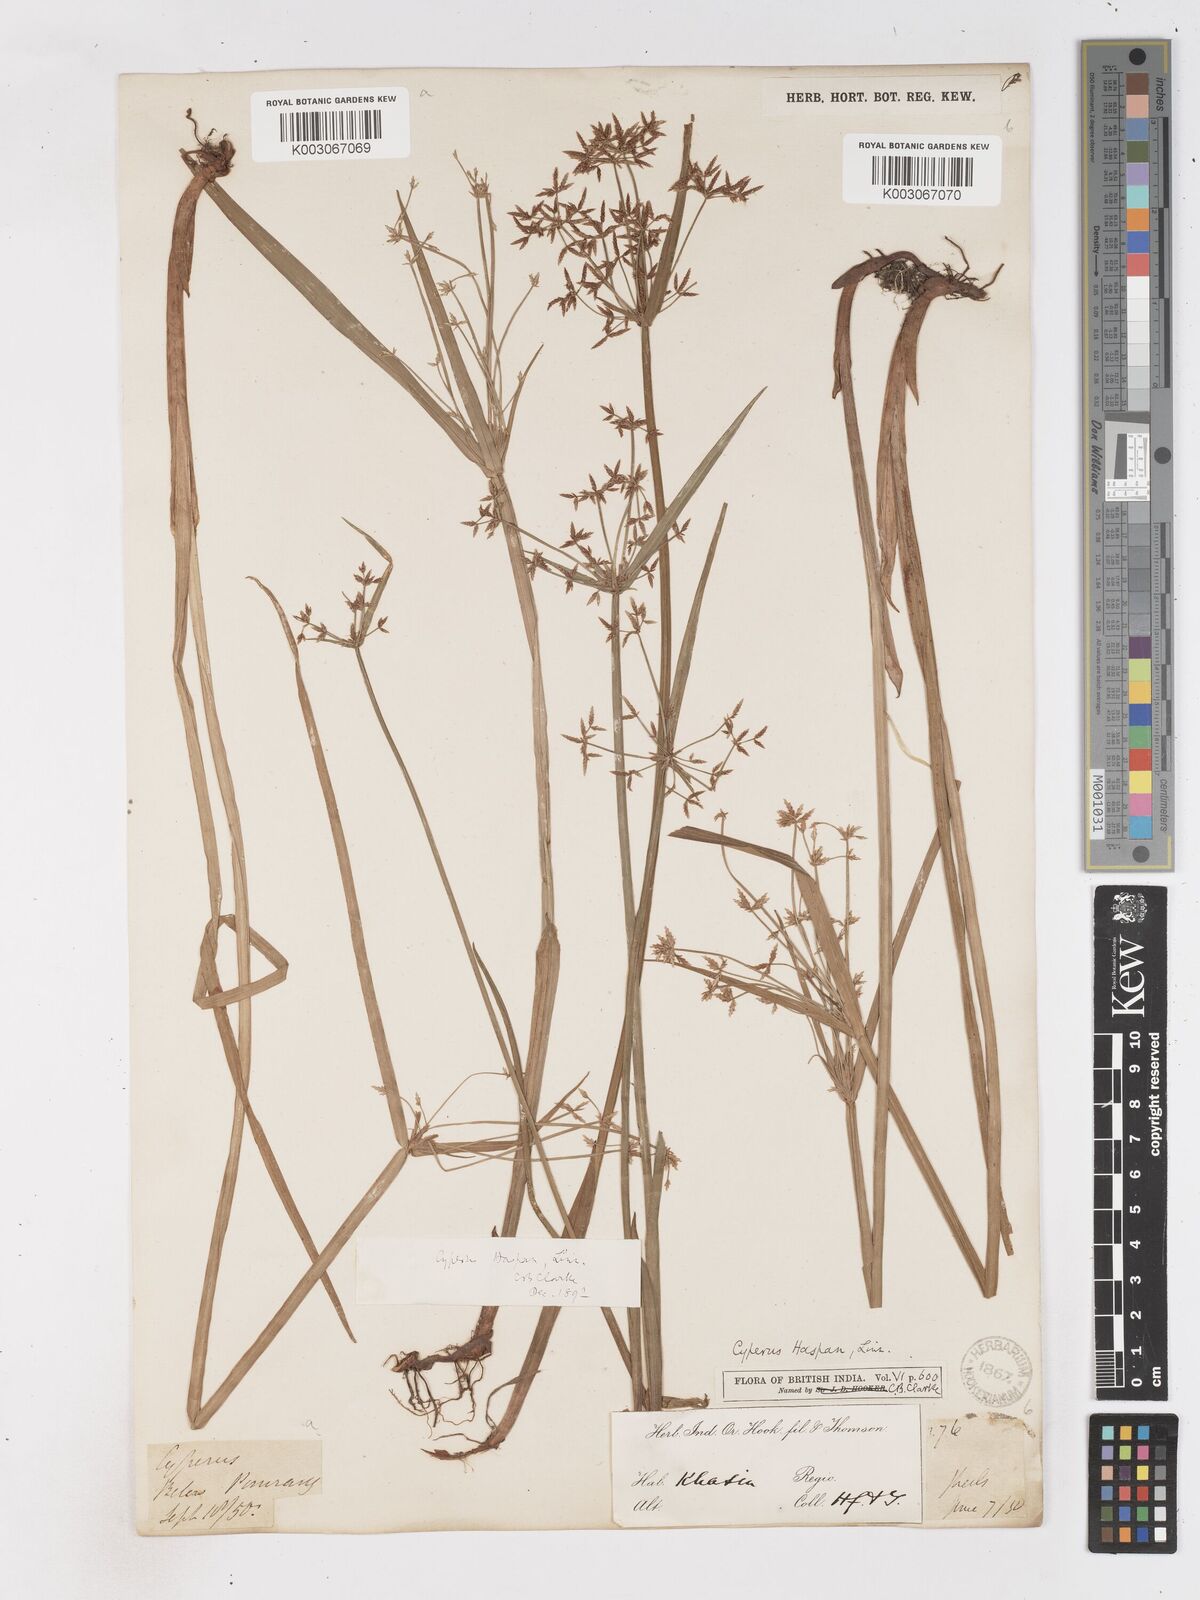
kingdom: Plantae
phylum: Tracheophyta
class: Liliopsida
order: Poales
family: Cyperaceae
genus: Cyperus
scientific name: Cyperus haspan
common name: Haspan flatsedge
